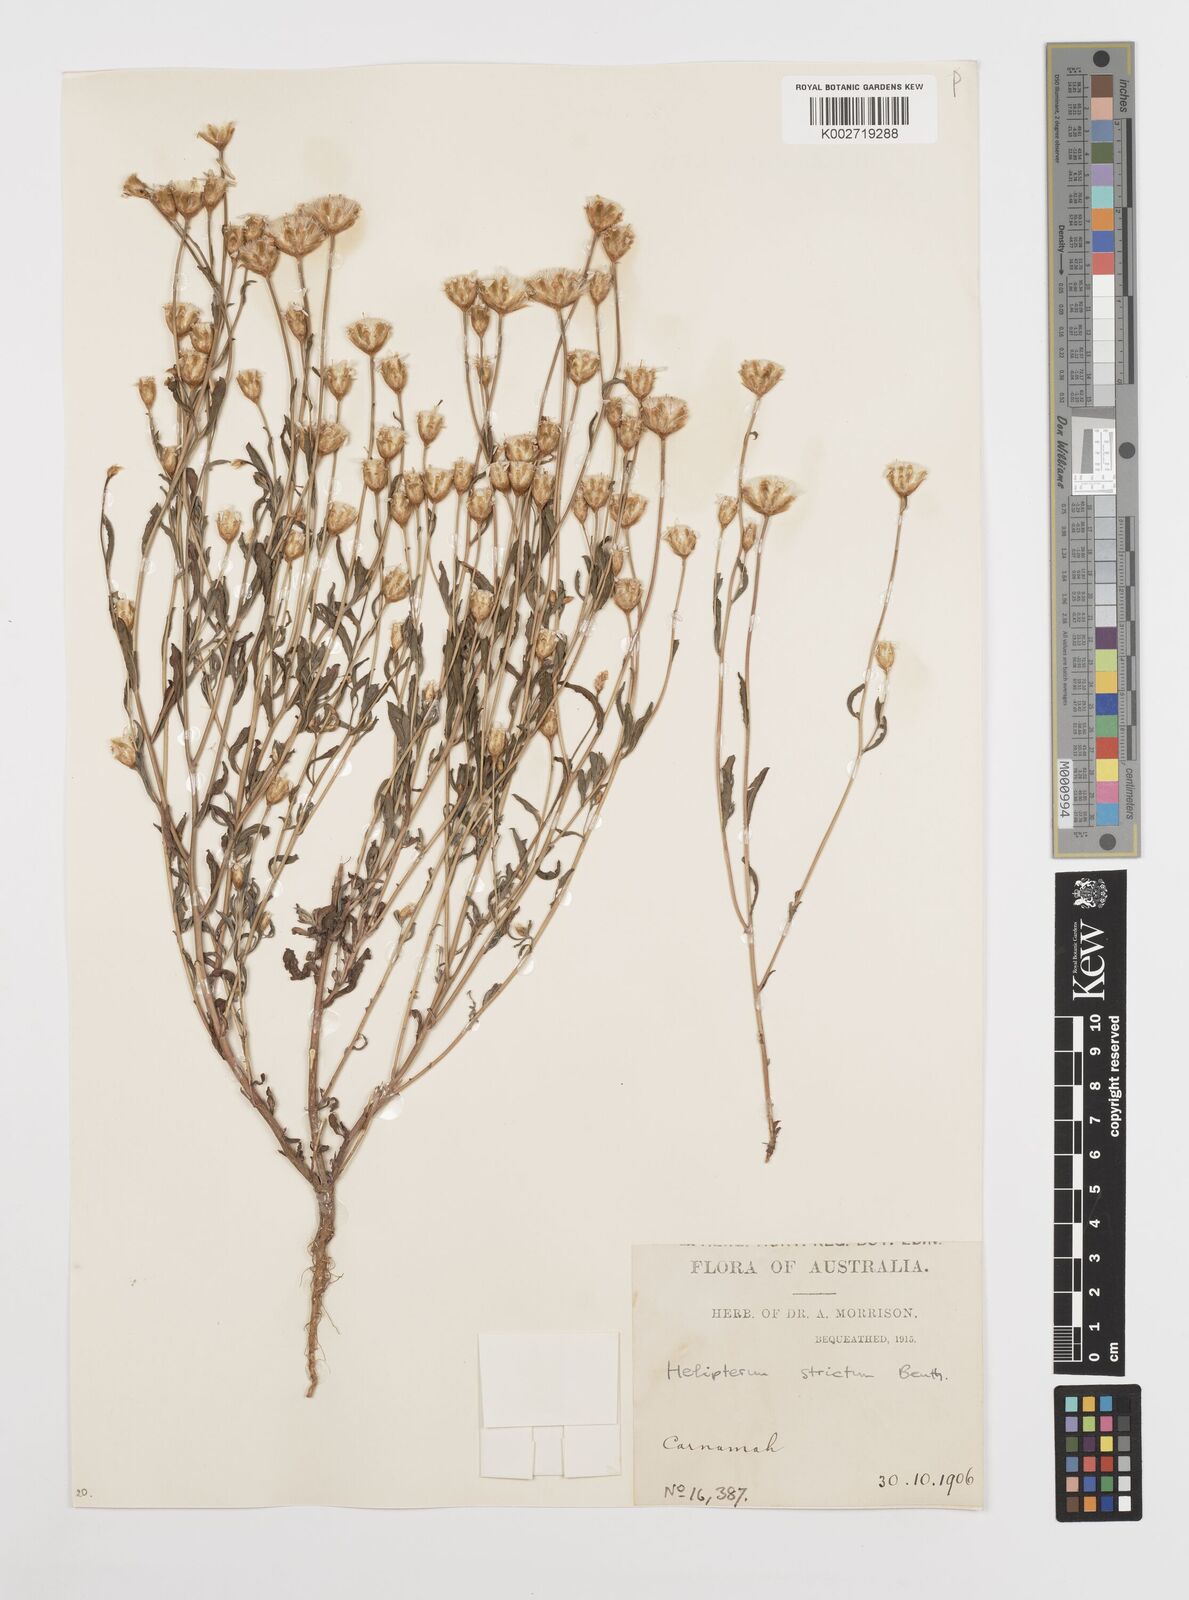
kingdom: Plantae
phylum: Tracheophyta
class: Magnoliopsida
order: Asterales
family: Asteraceae
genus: Rhodanthe
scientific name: Rhodanthe stricta
